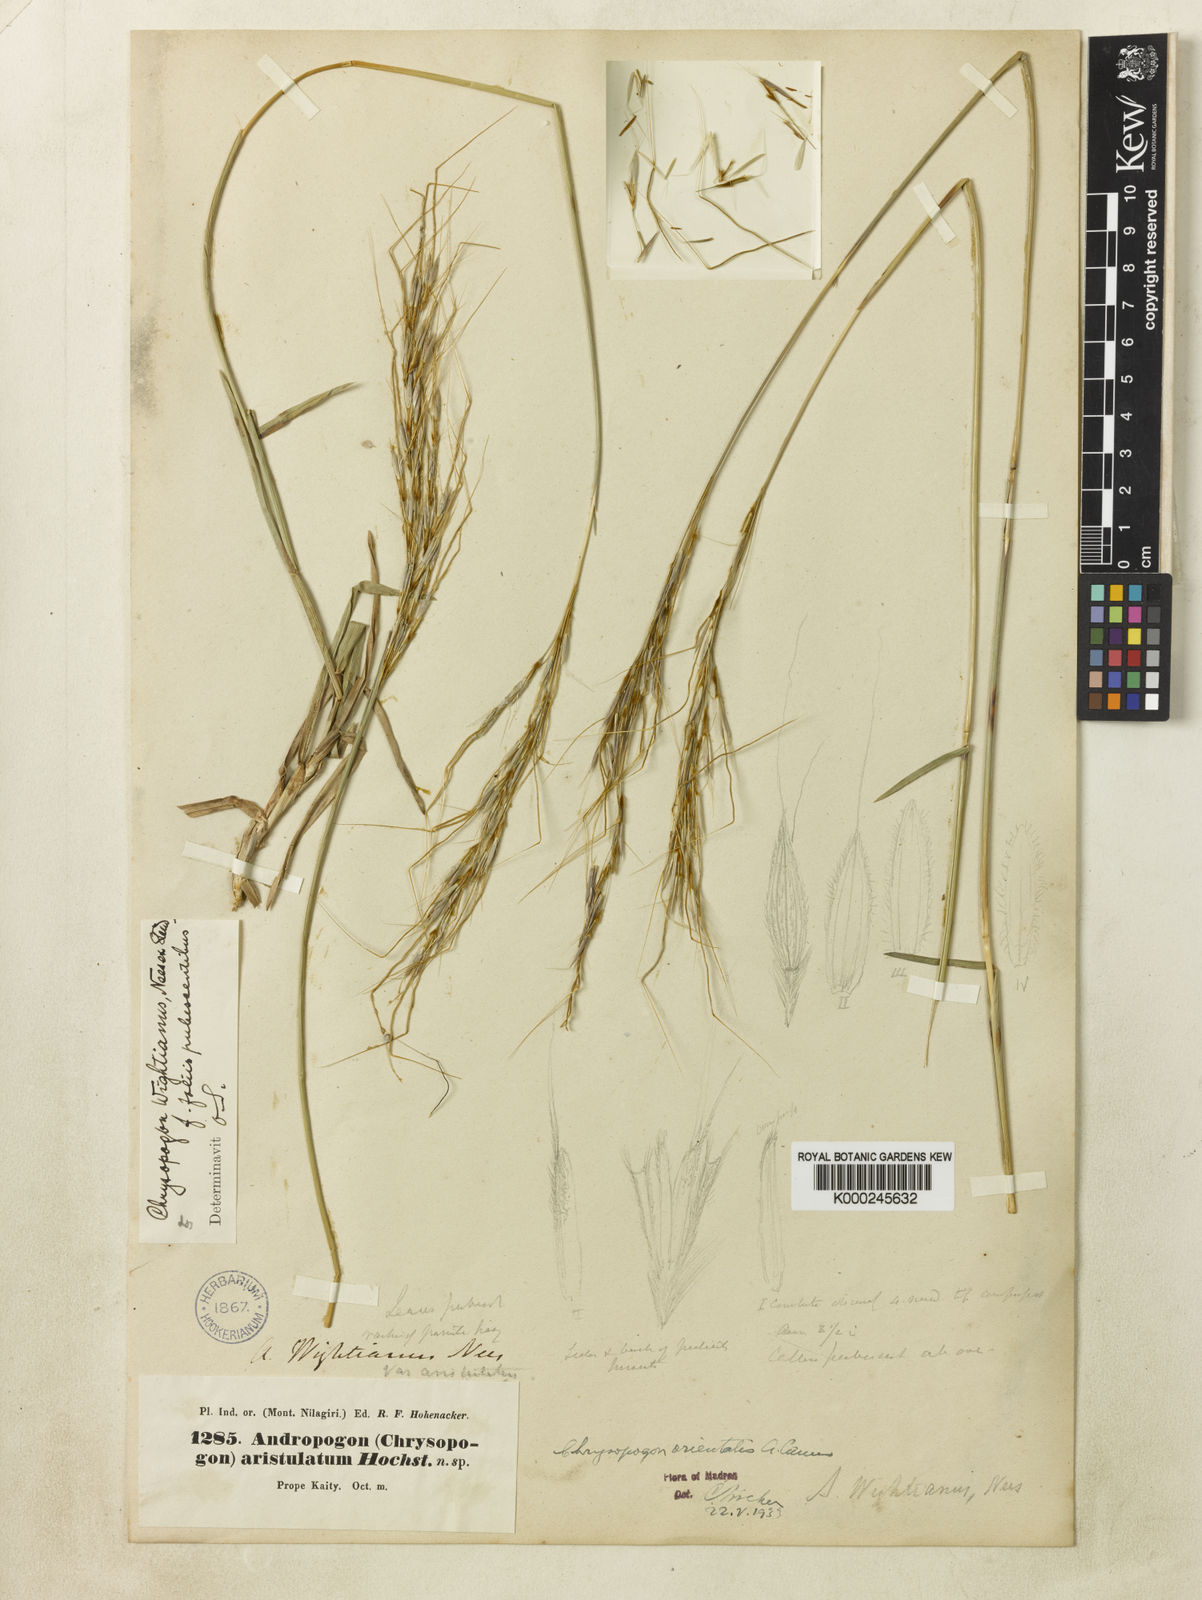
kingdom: Plantae
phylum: Tracheophyta
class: Liliopsida
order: Poales
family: Poaceae
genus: Chrysopogon
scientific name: Chrysopogon orientalis
